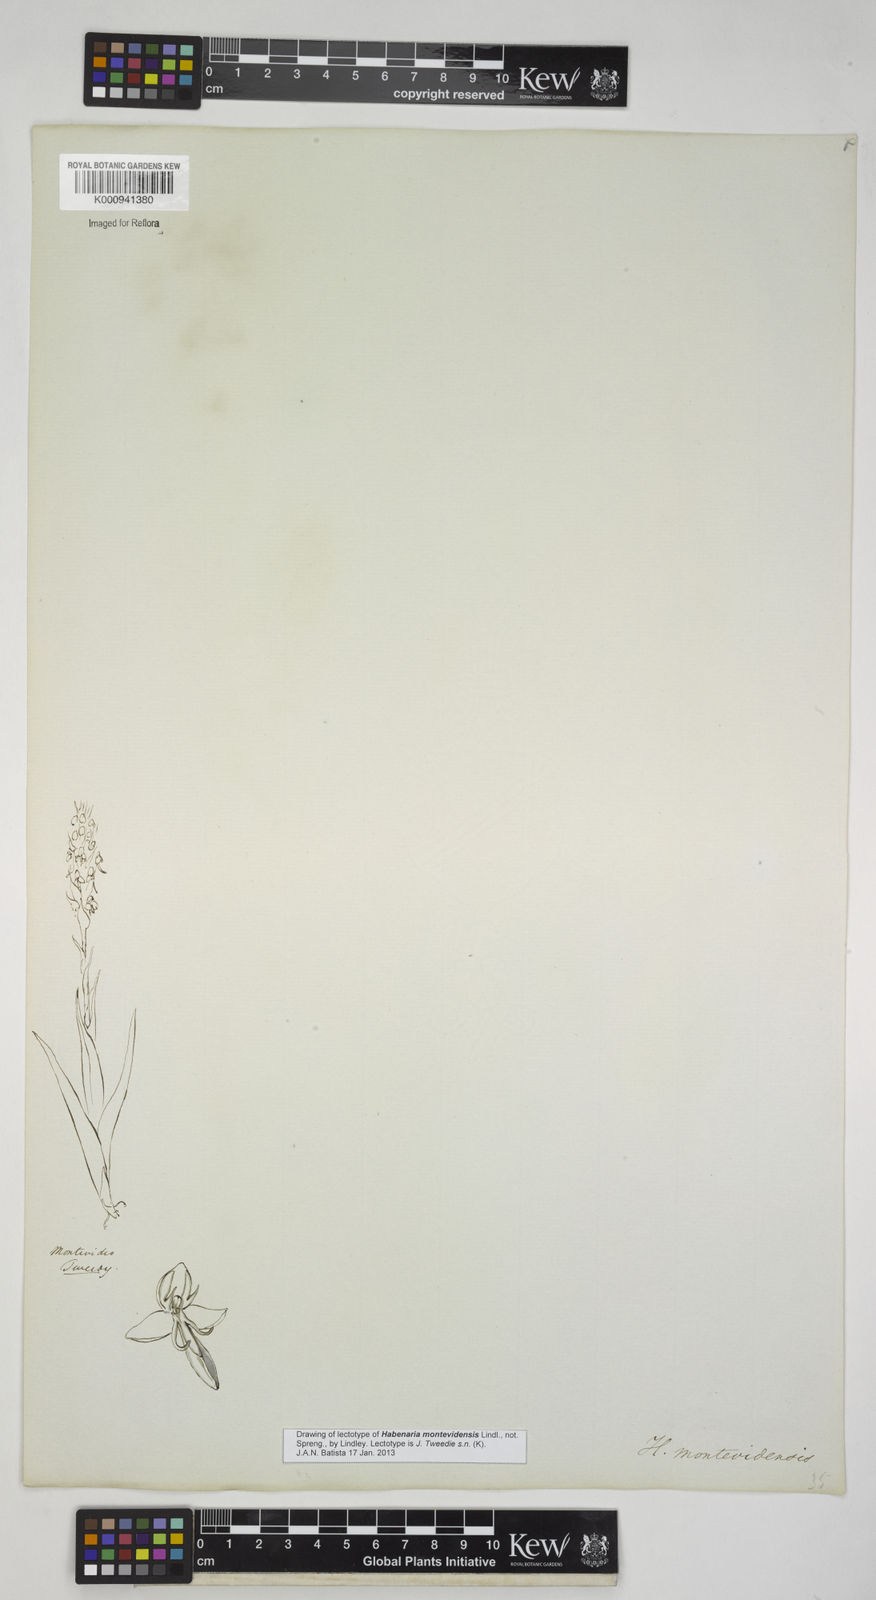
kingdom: Plantae
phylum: Tracheophyta
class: Liliopsida
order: Asparagales
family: Orchidaceae
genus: Habenaria
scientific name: Habenaria montevidensis
